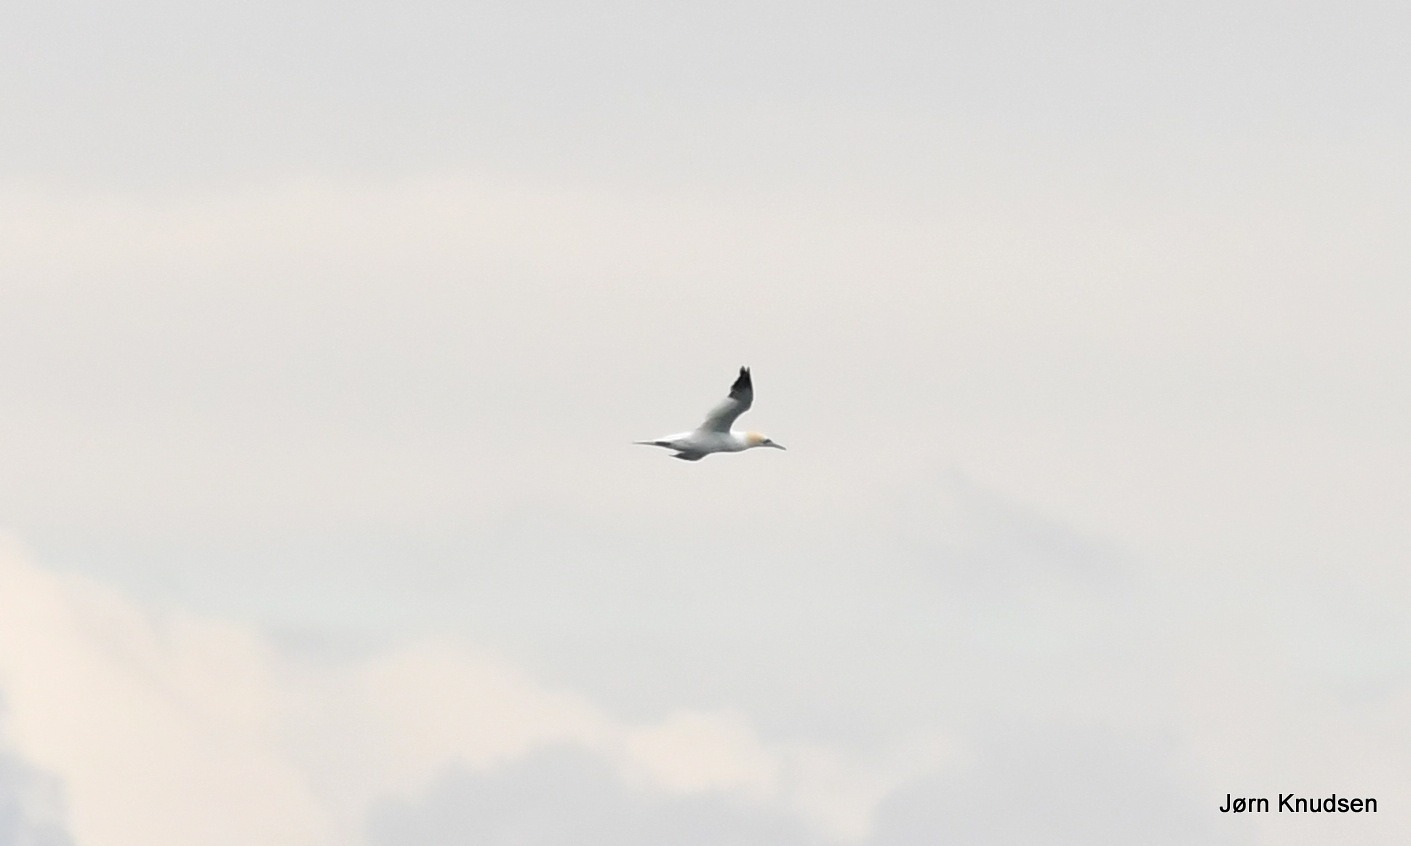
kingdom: Animalia
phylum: Chordata
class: Aves
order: Suliformes
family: Sulidae
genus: Morus
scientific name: Morus bassanus
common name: Sule
